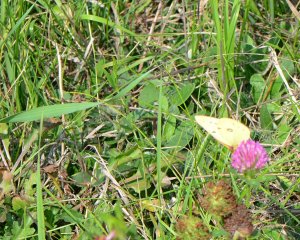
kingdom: Animalia
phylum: Arthropoda
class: Insecta
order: Lepidoptera
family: Pieridae
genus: Colias
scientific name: Colias philodice
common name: Clouded Sulphur
